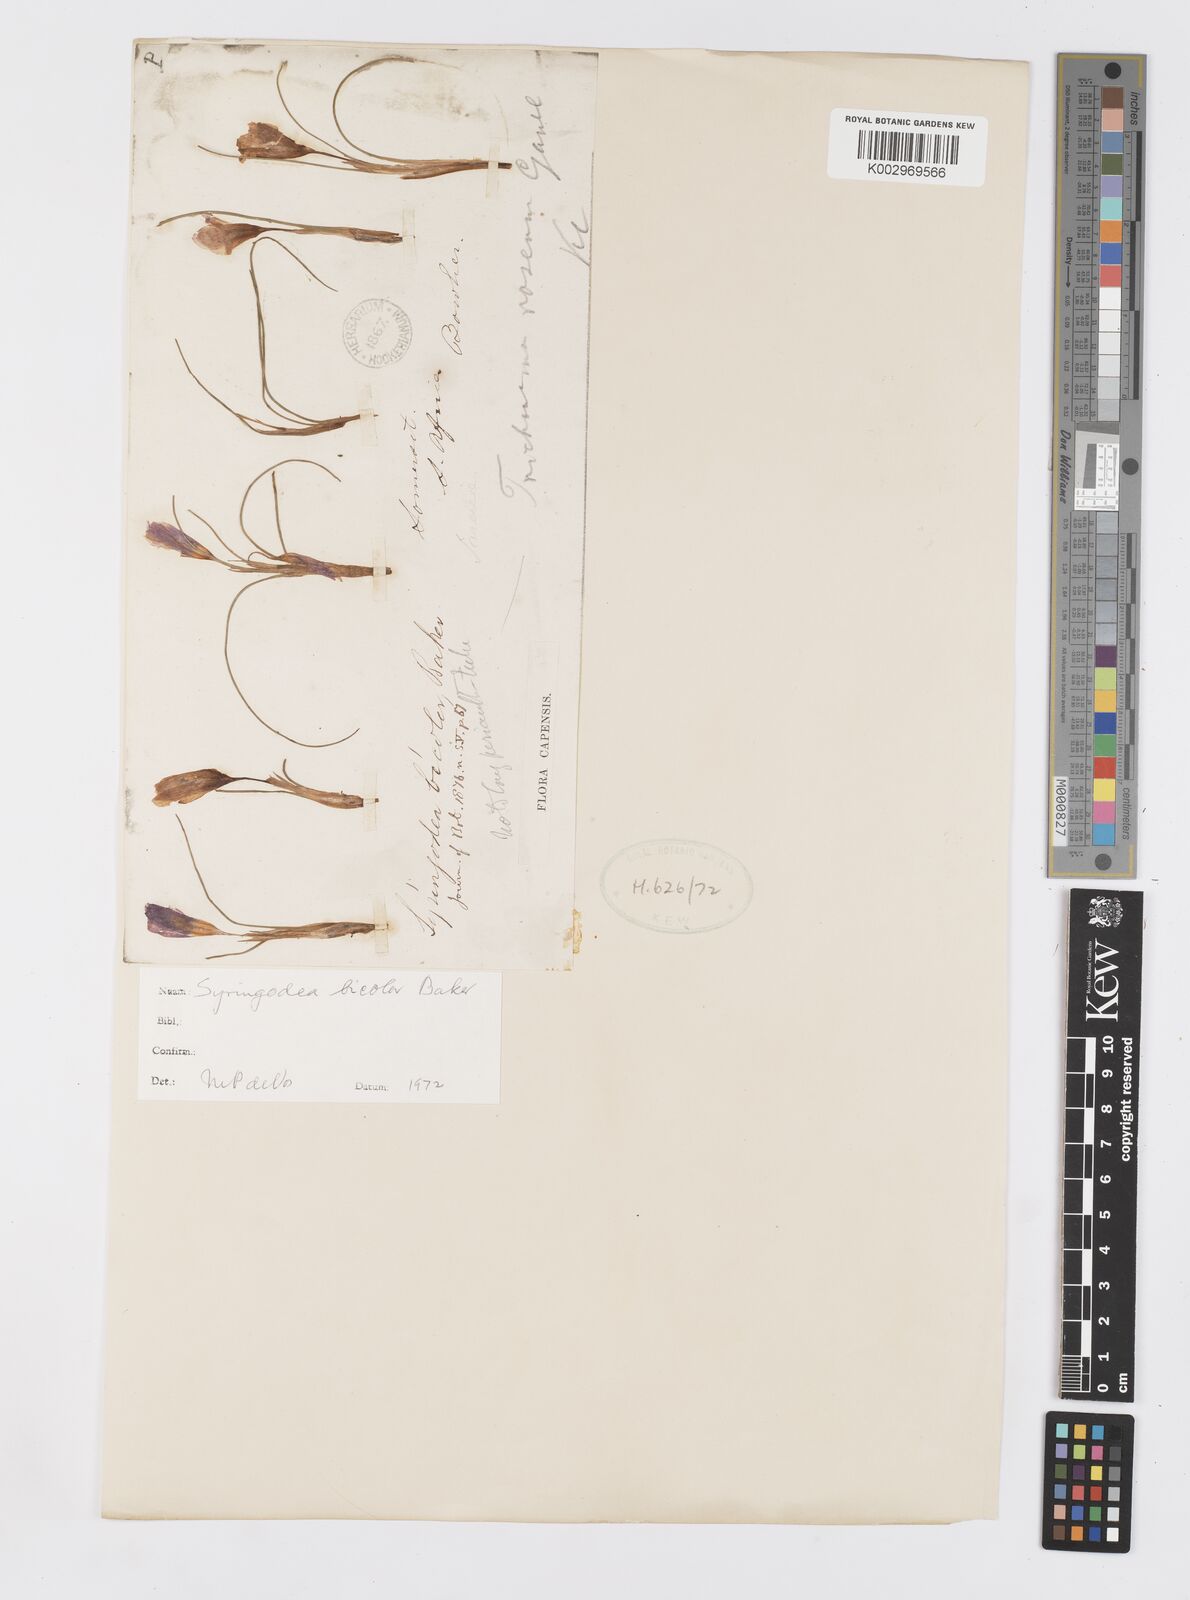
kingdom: Plantae
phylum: Tracheophyta
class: Liliopsida
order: Asparagales
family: Iridaceae
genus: Syringodea
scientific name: Syringodea bifucata
